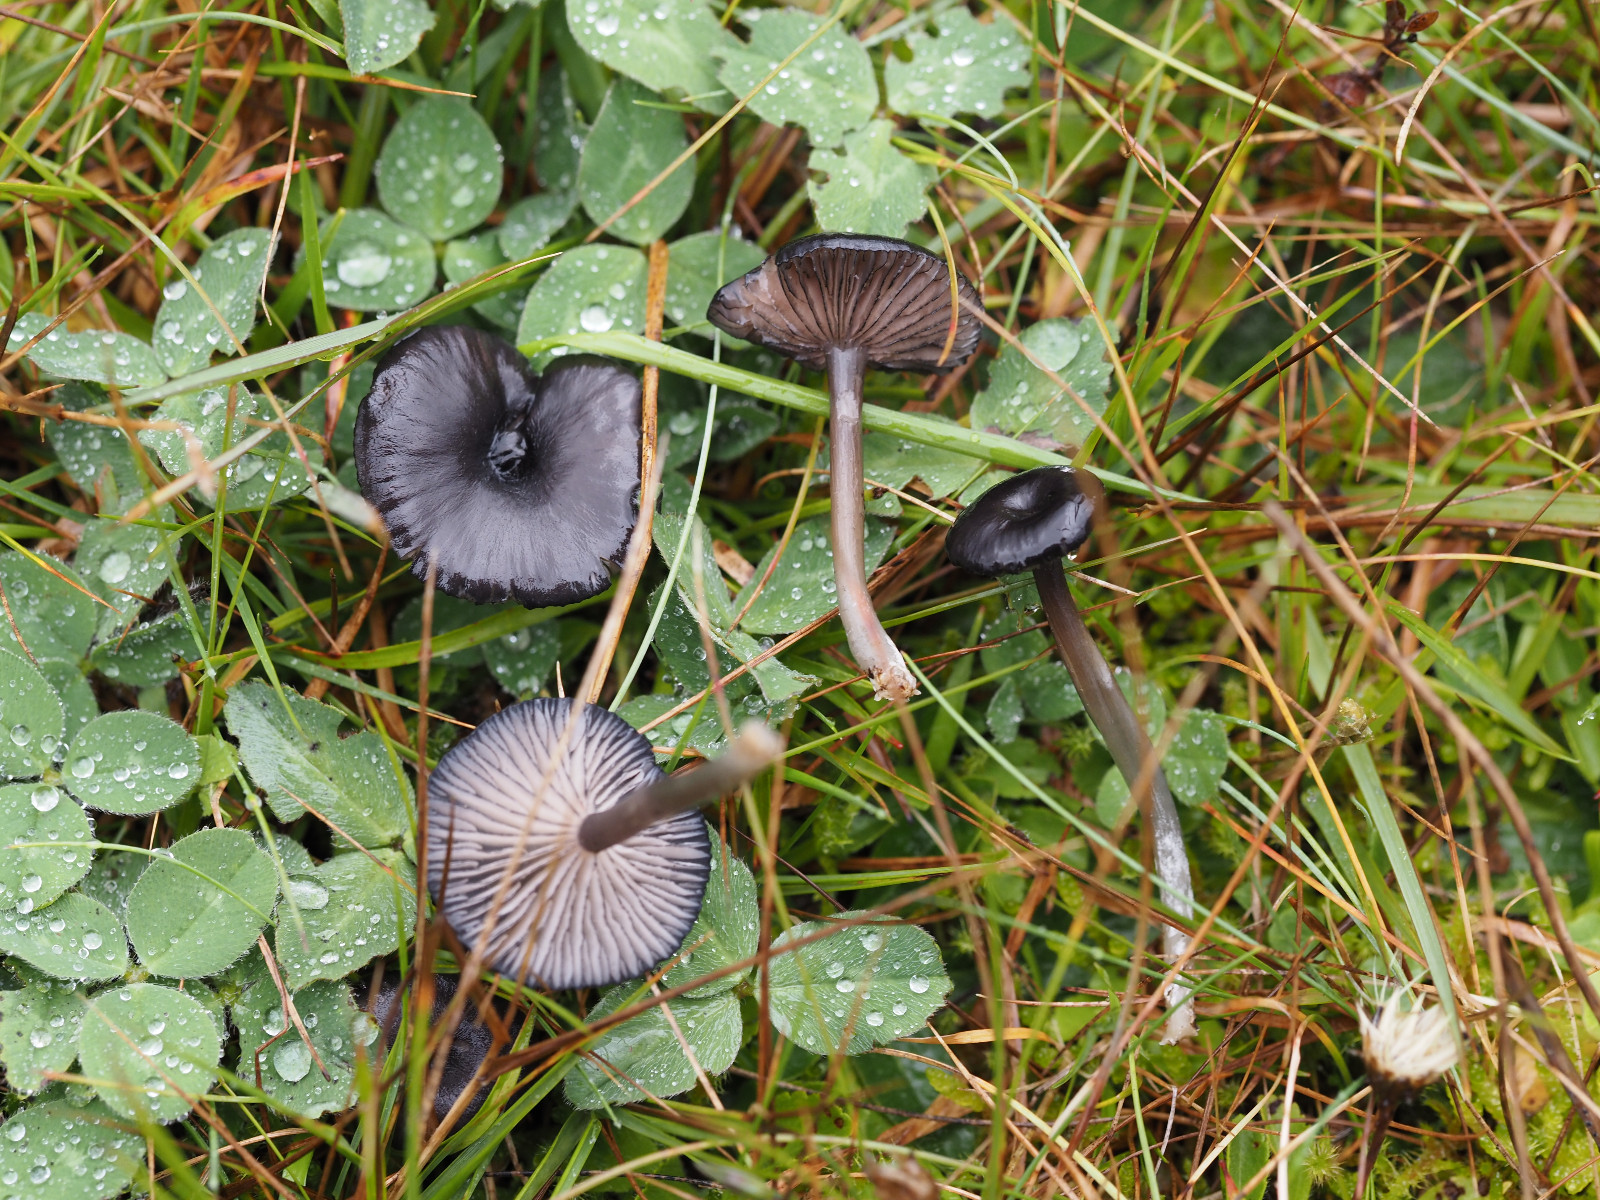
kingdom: Fungi
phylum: Basidiomycota
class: Agaricomycetes
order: Agaricales
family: Entolomataceae
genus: Entoloma
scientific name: Entoloma
